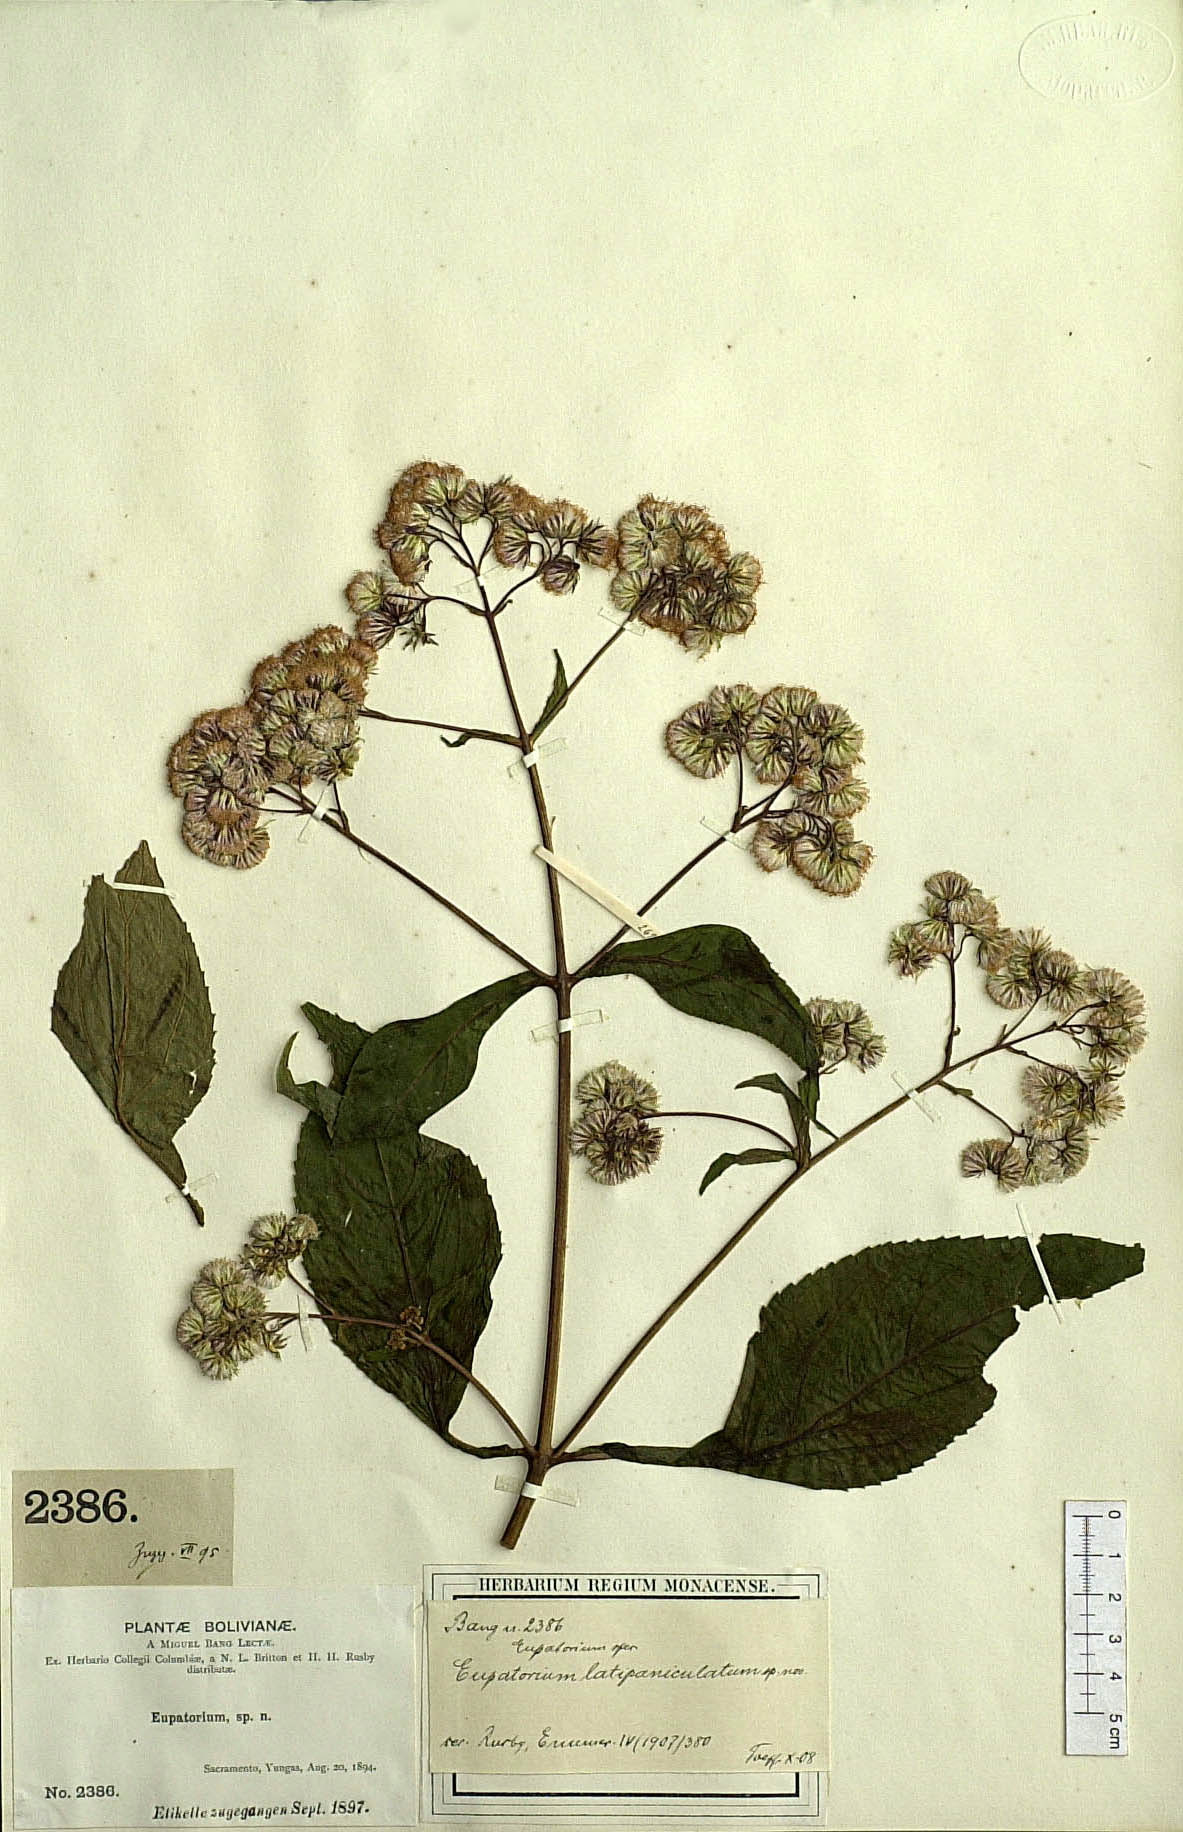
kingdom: Plantae
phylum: Tracheophyta
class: Magnoliopsida
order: Asterales
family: Asteraceae
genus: Ayapanopsis
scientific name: Ayapanopsis latipaniculata
